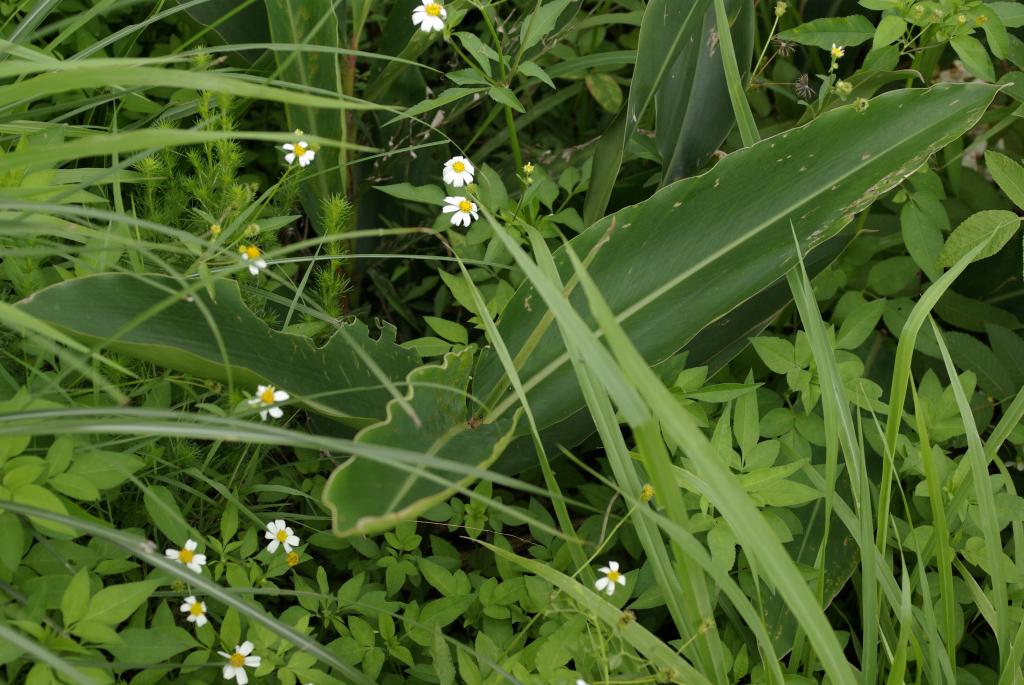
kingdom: Plantae
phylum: Tracheophyta
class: Liliopsida
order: Zingiberales
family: Zingiberaceae
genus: Alpinia
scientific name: Alpinia zerumbet
